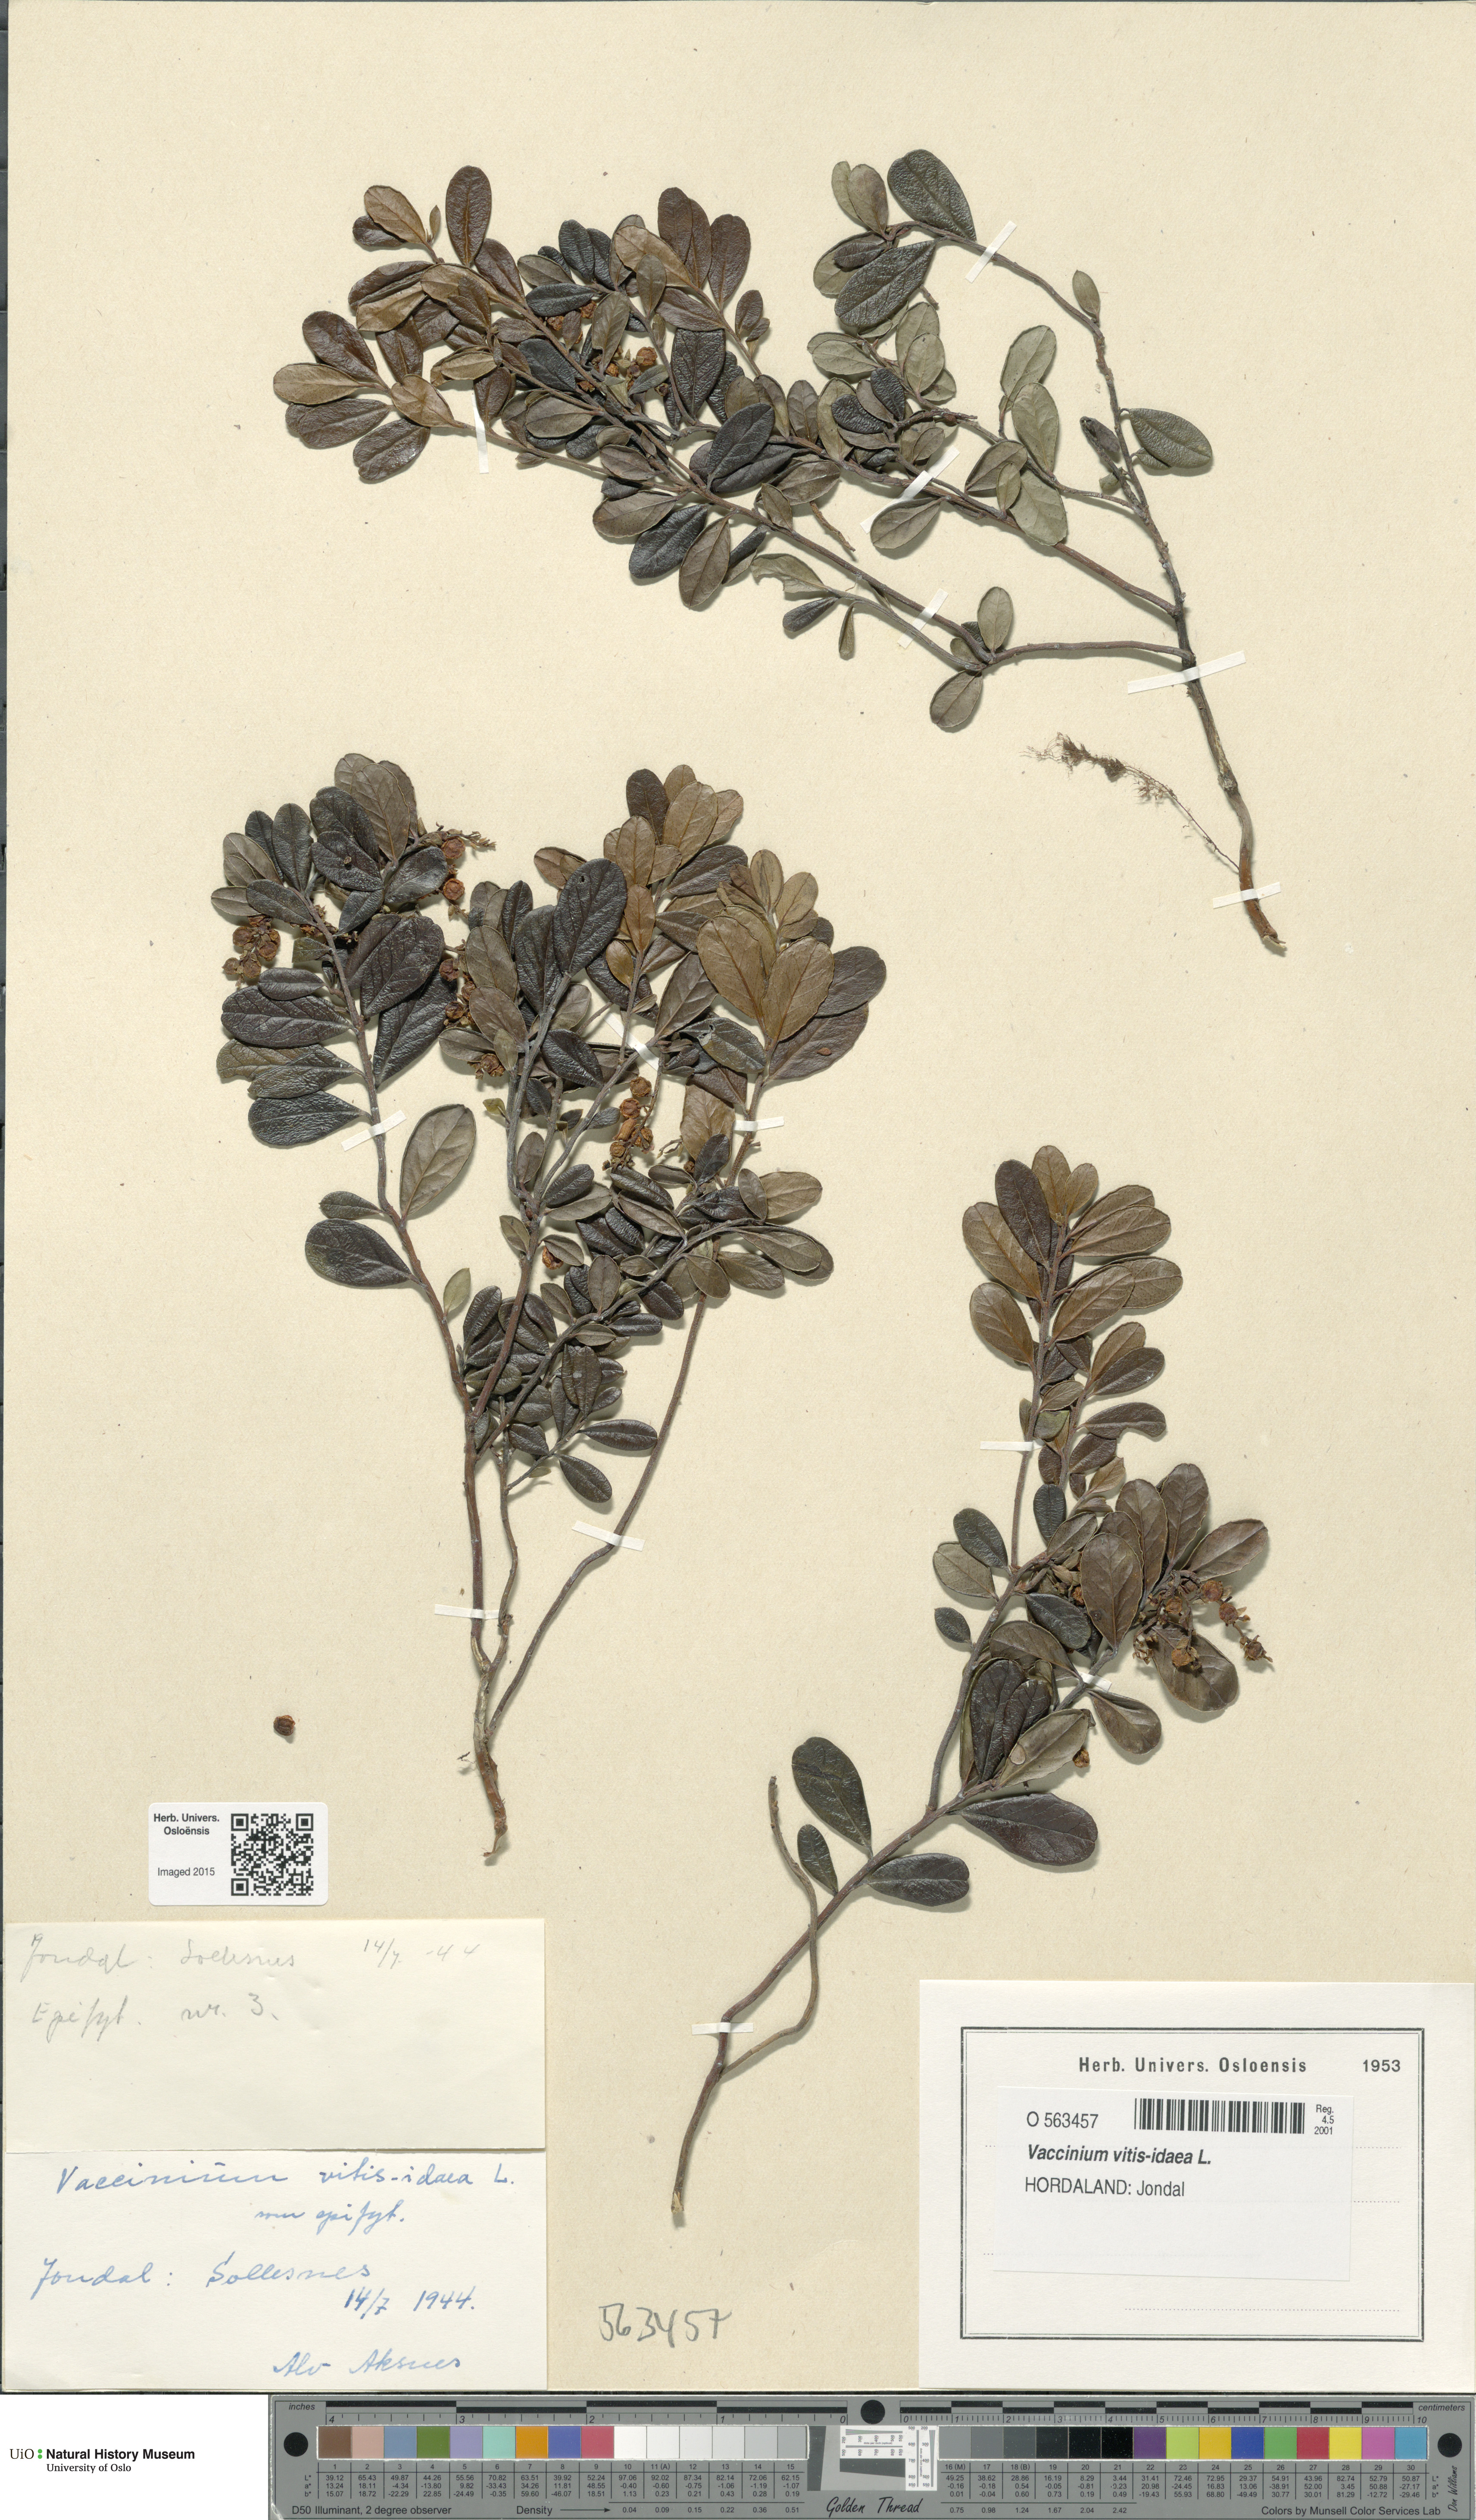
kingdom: Plantae
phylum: Tracheophyta
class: Magnoliopsida
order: Ericales
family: Ericaceae
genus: Vaccinium
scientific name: Vaccinium vitis-idaea
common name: Cowberry
